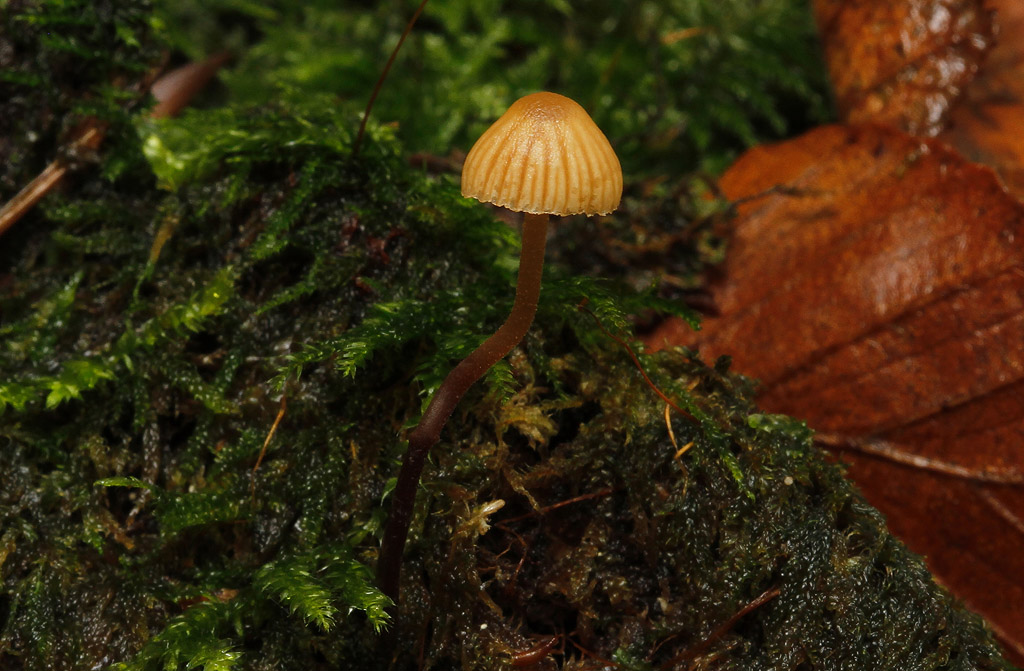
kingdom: Fungi
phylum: Basidiomycota
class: Agaricomycetes
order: Agaricales
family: Hymenogastraceae
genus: Galerina
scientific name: Galerina vittiformis
